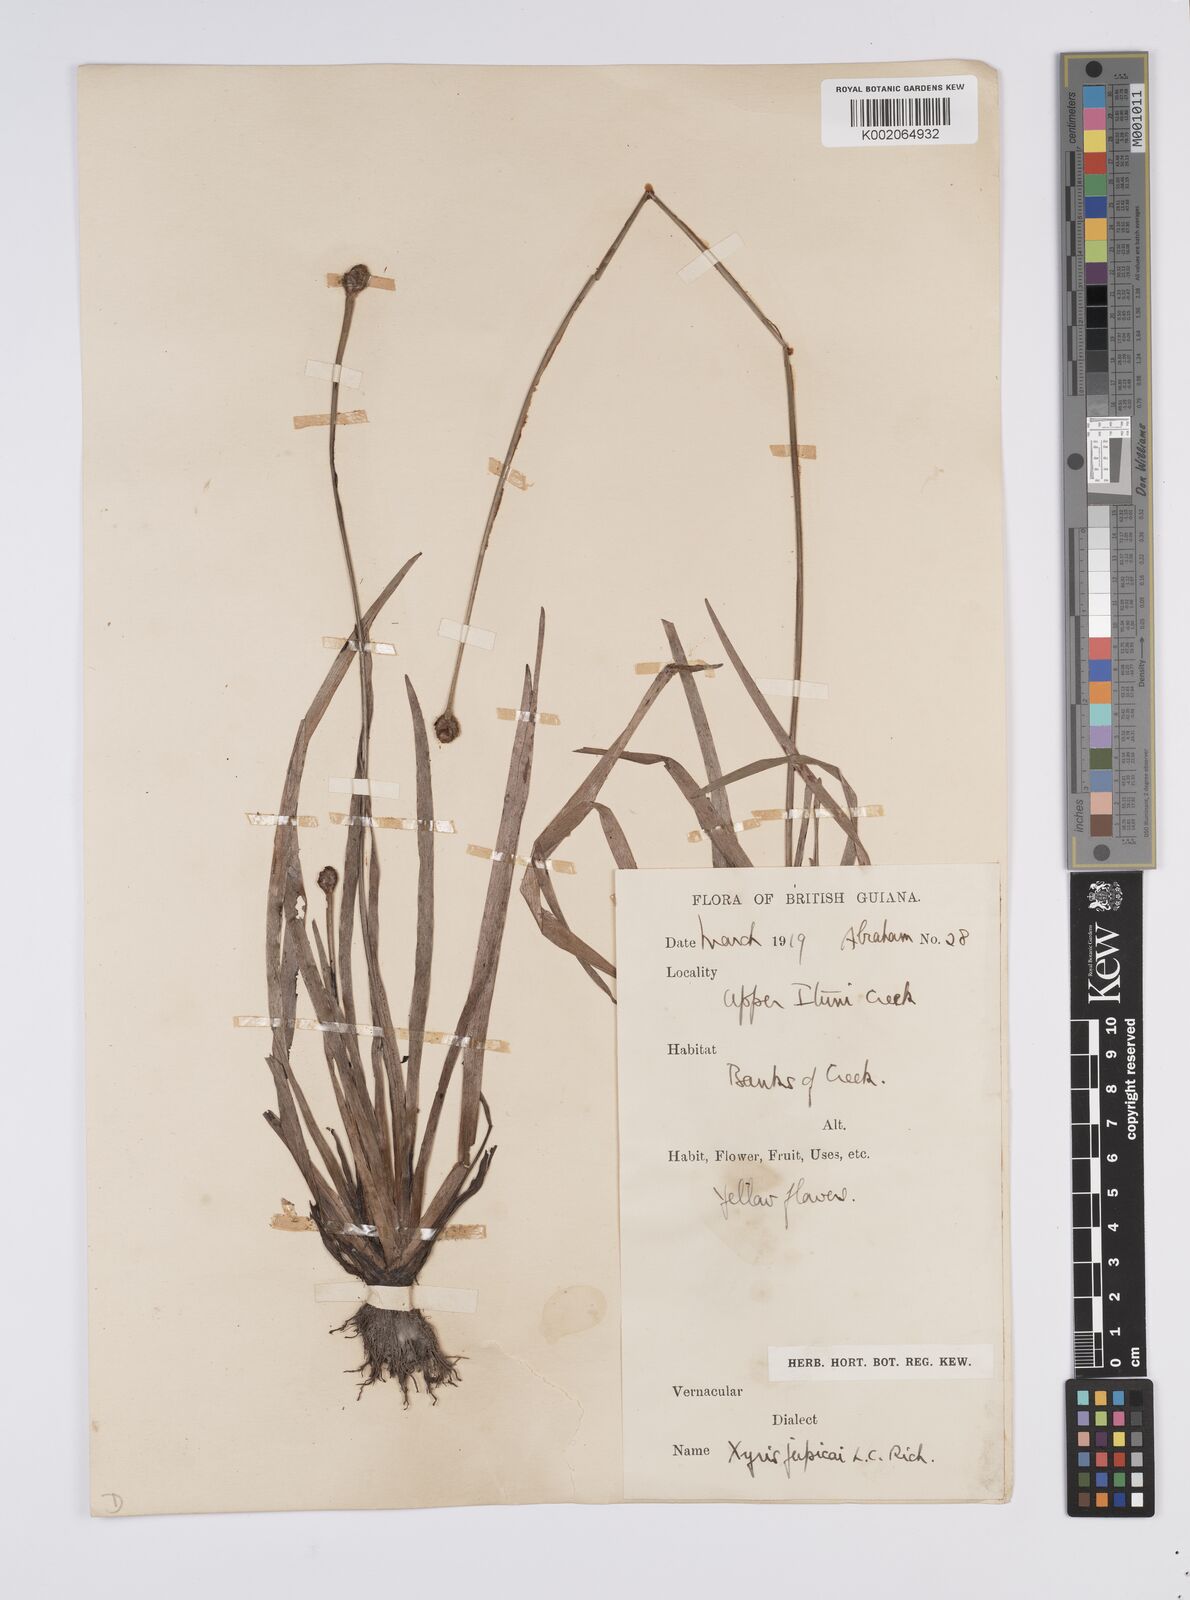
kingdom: Plantae
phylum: Tracheophyta
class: Liliopsida
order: Poales
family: Xyridaceae
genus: Xyris
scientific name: Xyris jupicai
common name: Richard's yelloweyed grass
